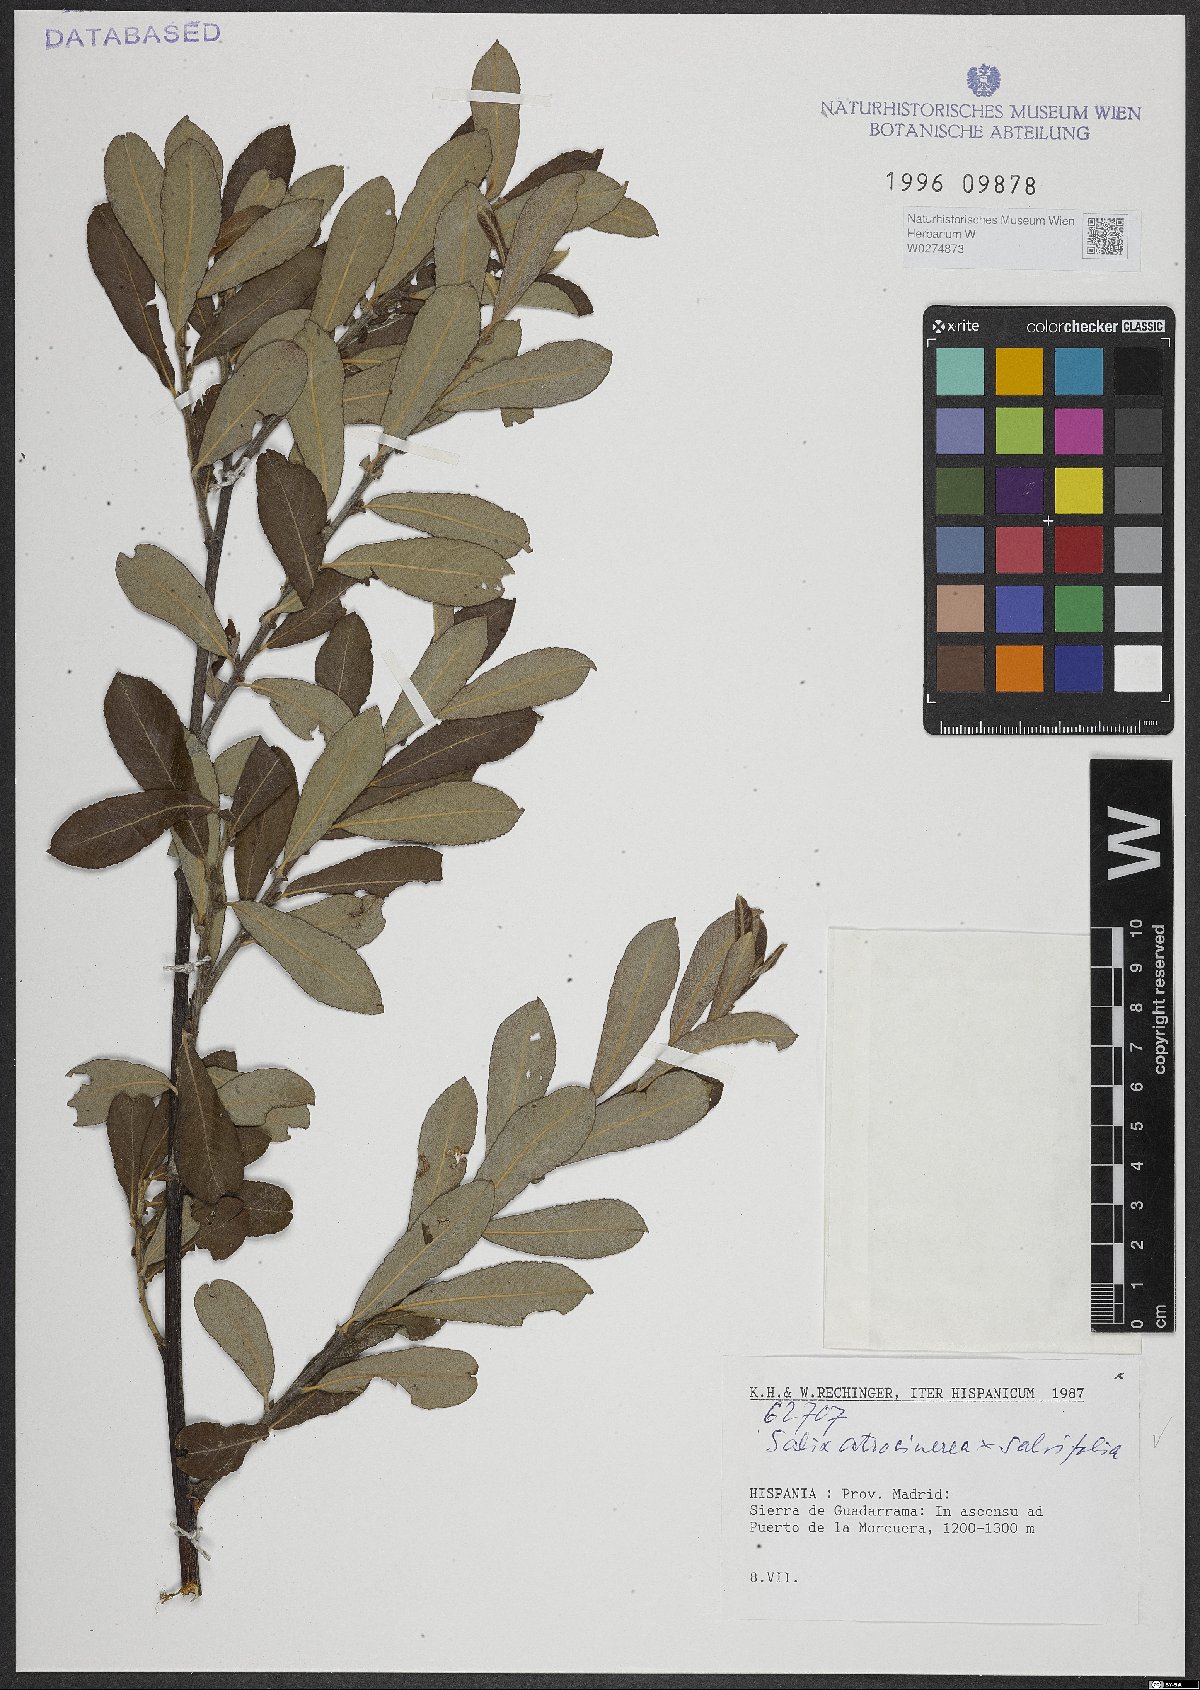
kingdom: Plantae
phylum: Tracheophyta
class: Magnoliopsida
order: Malpighiales
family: Salicaceae
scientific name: Salicaceae
